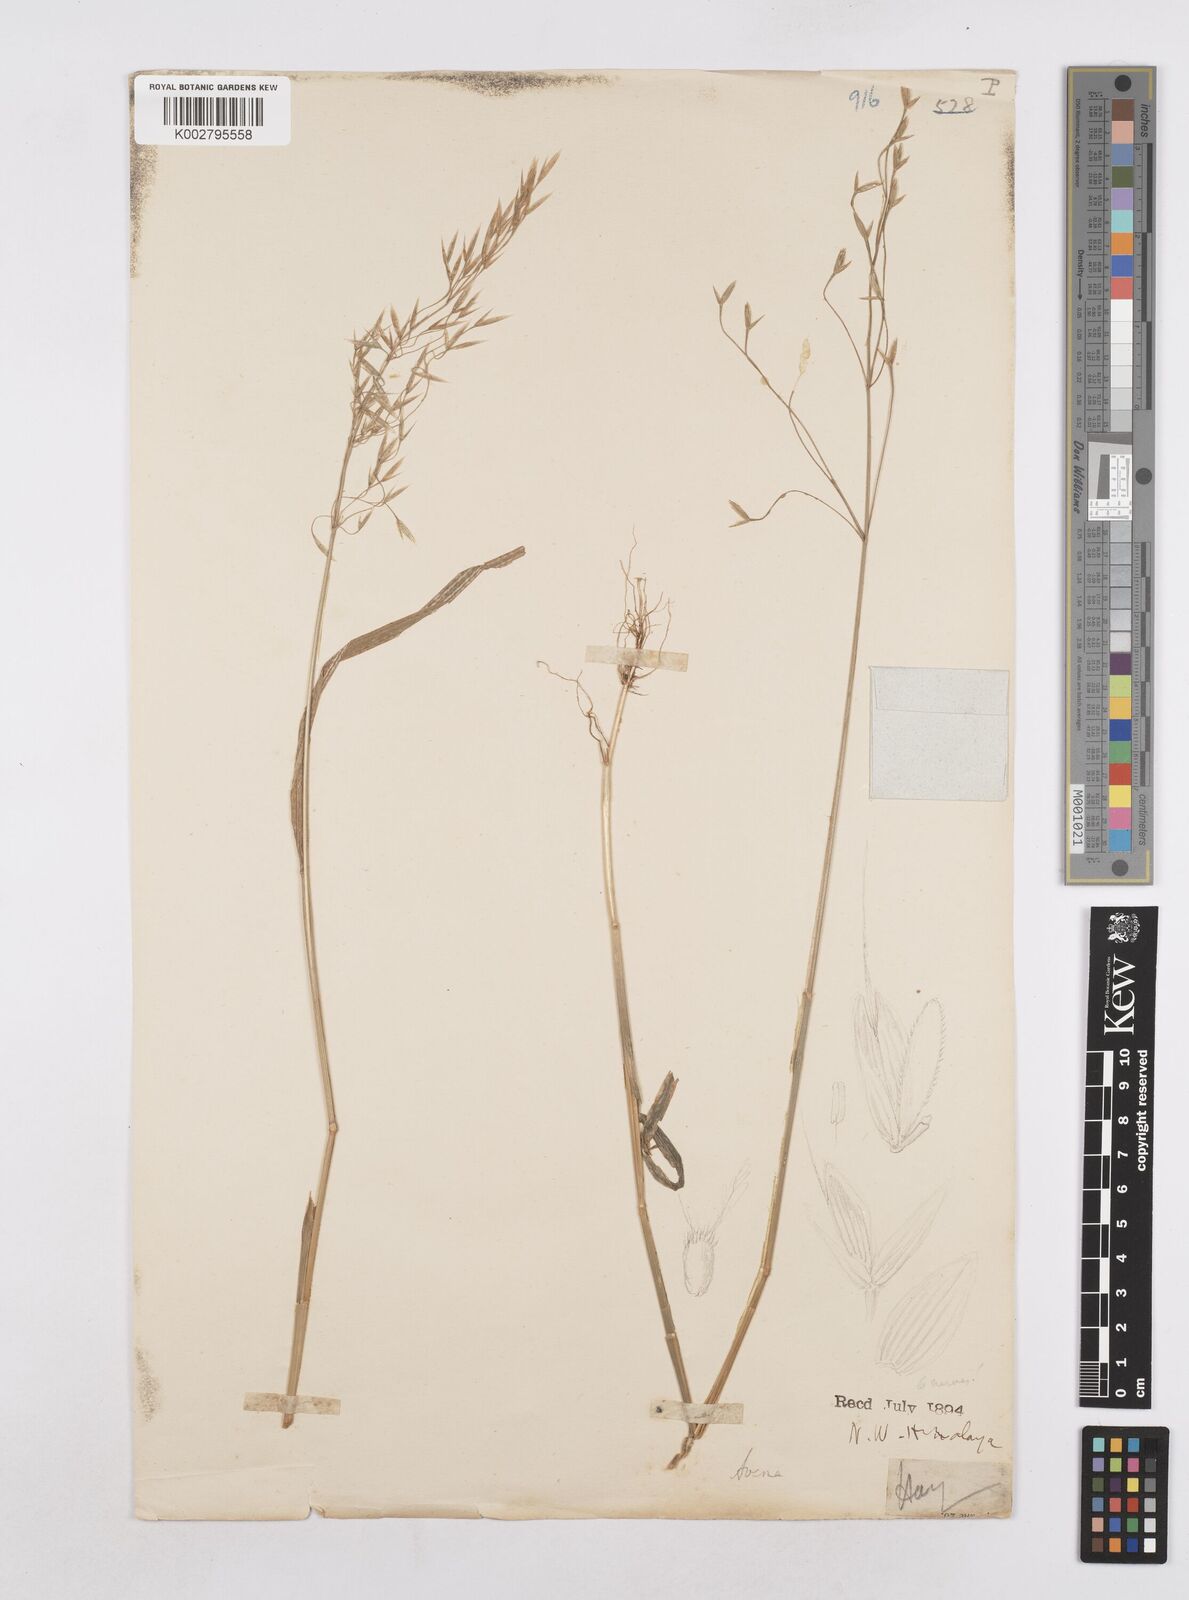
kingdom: Plantae
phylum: Tracheophyta
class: Liliopsida
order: Poales
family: Poaceae
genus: Trisetopsis
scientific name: Trisetopsis junghuhnii
